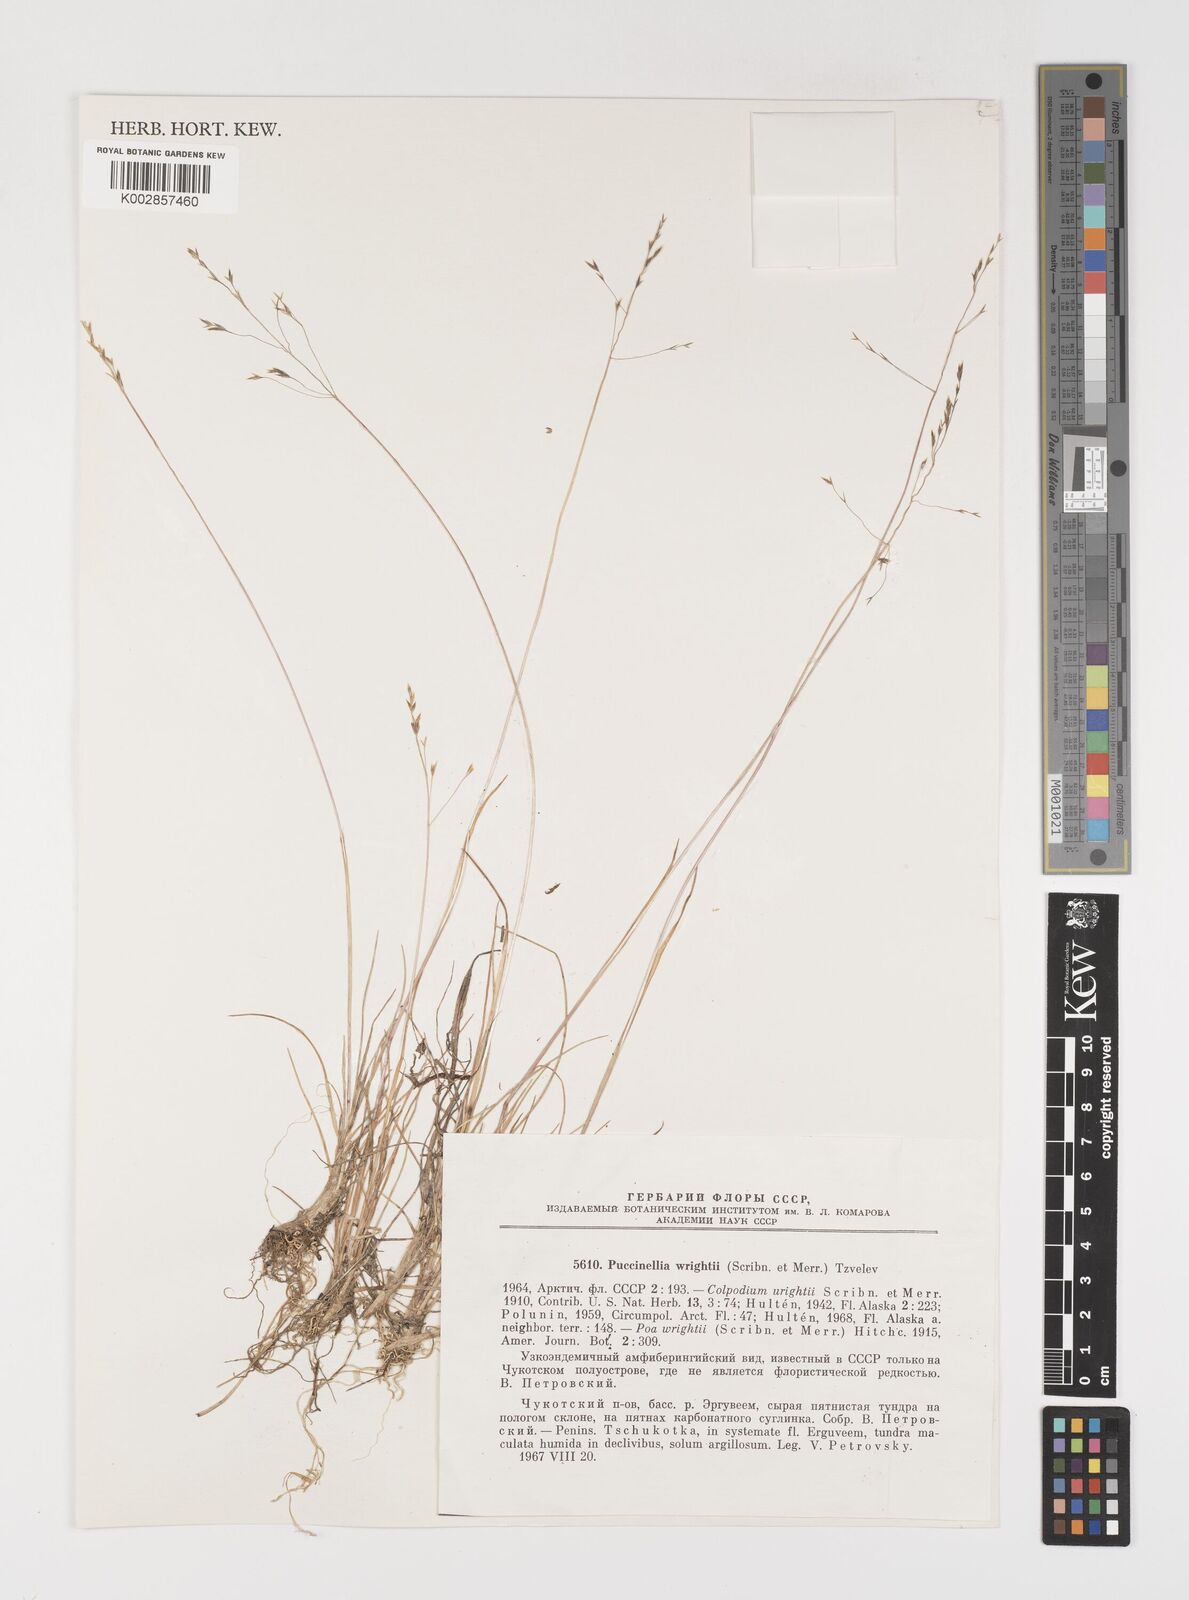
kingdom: Plantae
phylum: Tracheophyta
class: Liliopsida
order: Poales
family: Poaceae
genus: Puccinellia
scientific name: Puccinellia wrightii
